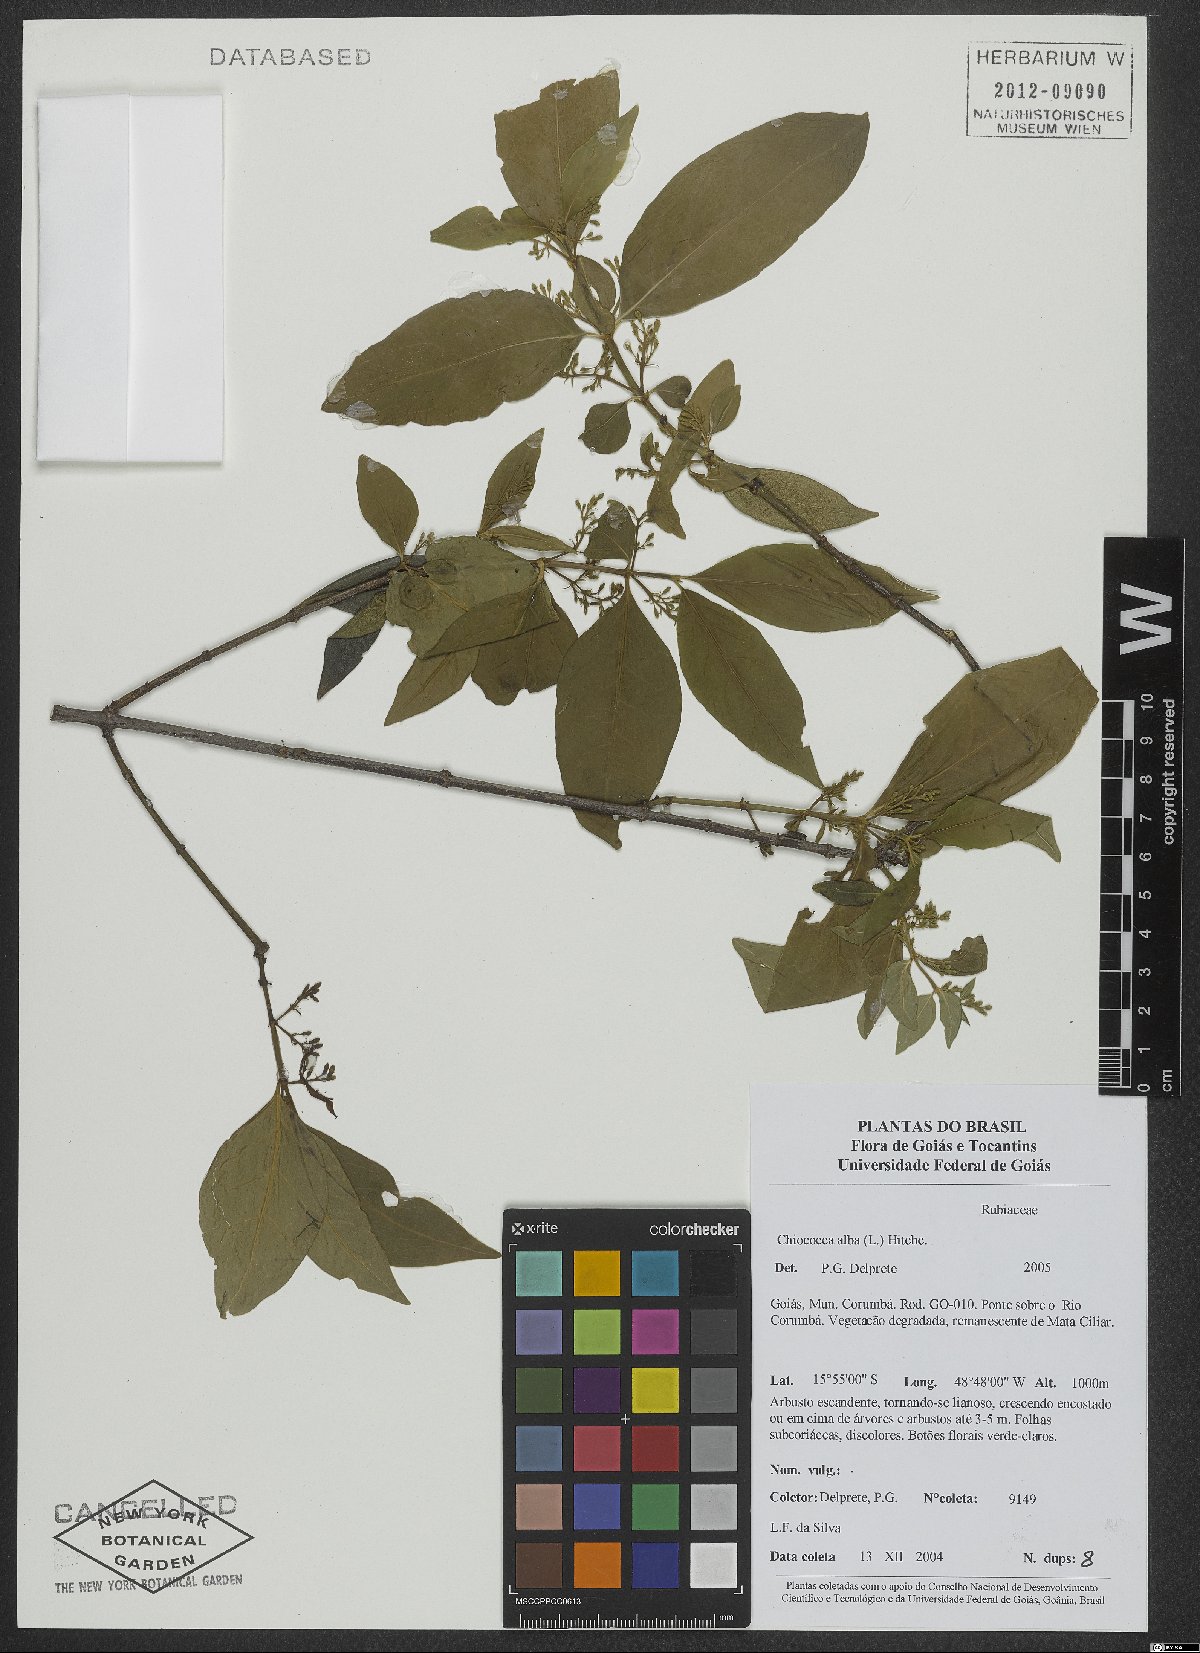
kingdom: Plantae
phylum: Tracheophyta
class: Magnoliopsida
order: Gentianales
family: Rubiaceae
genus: Chiococca
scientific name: Chiococca alba
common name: Snowberry
